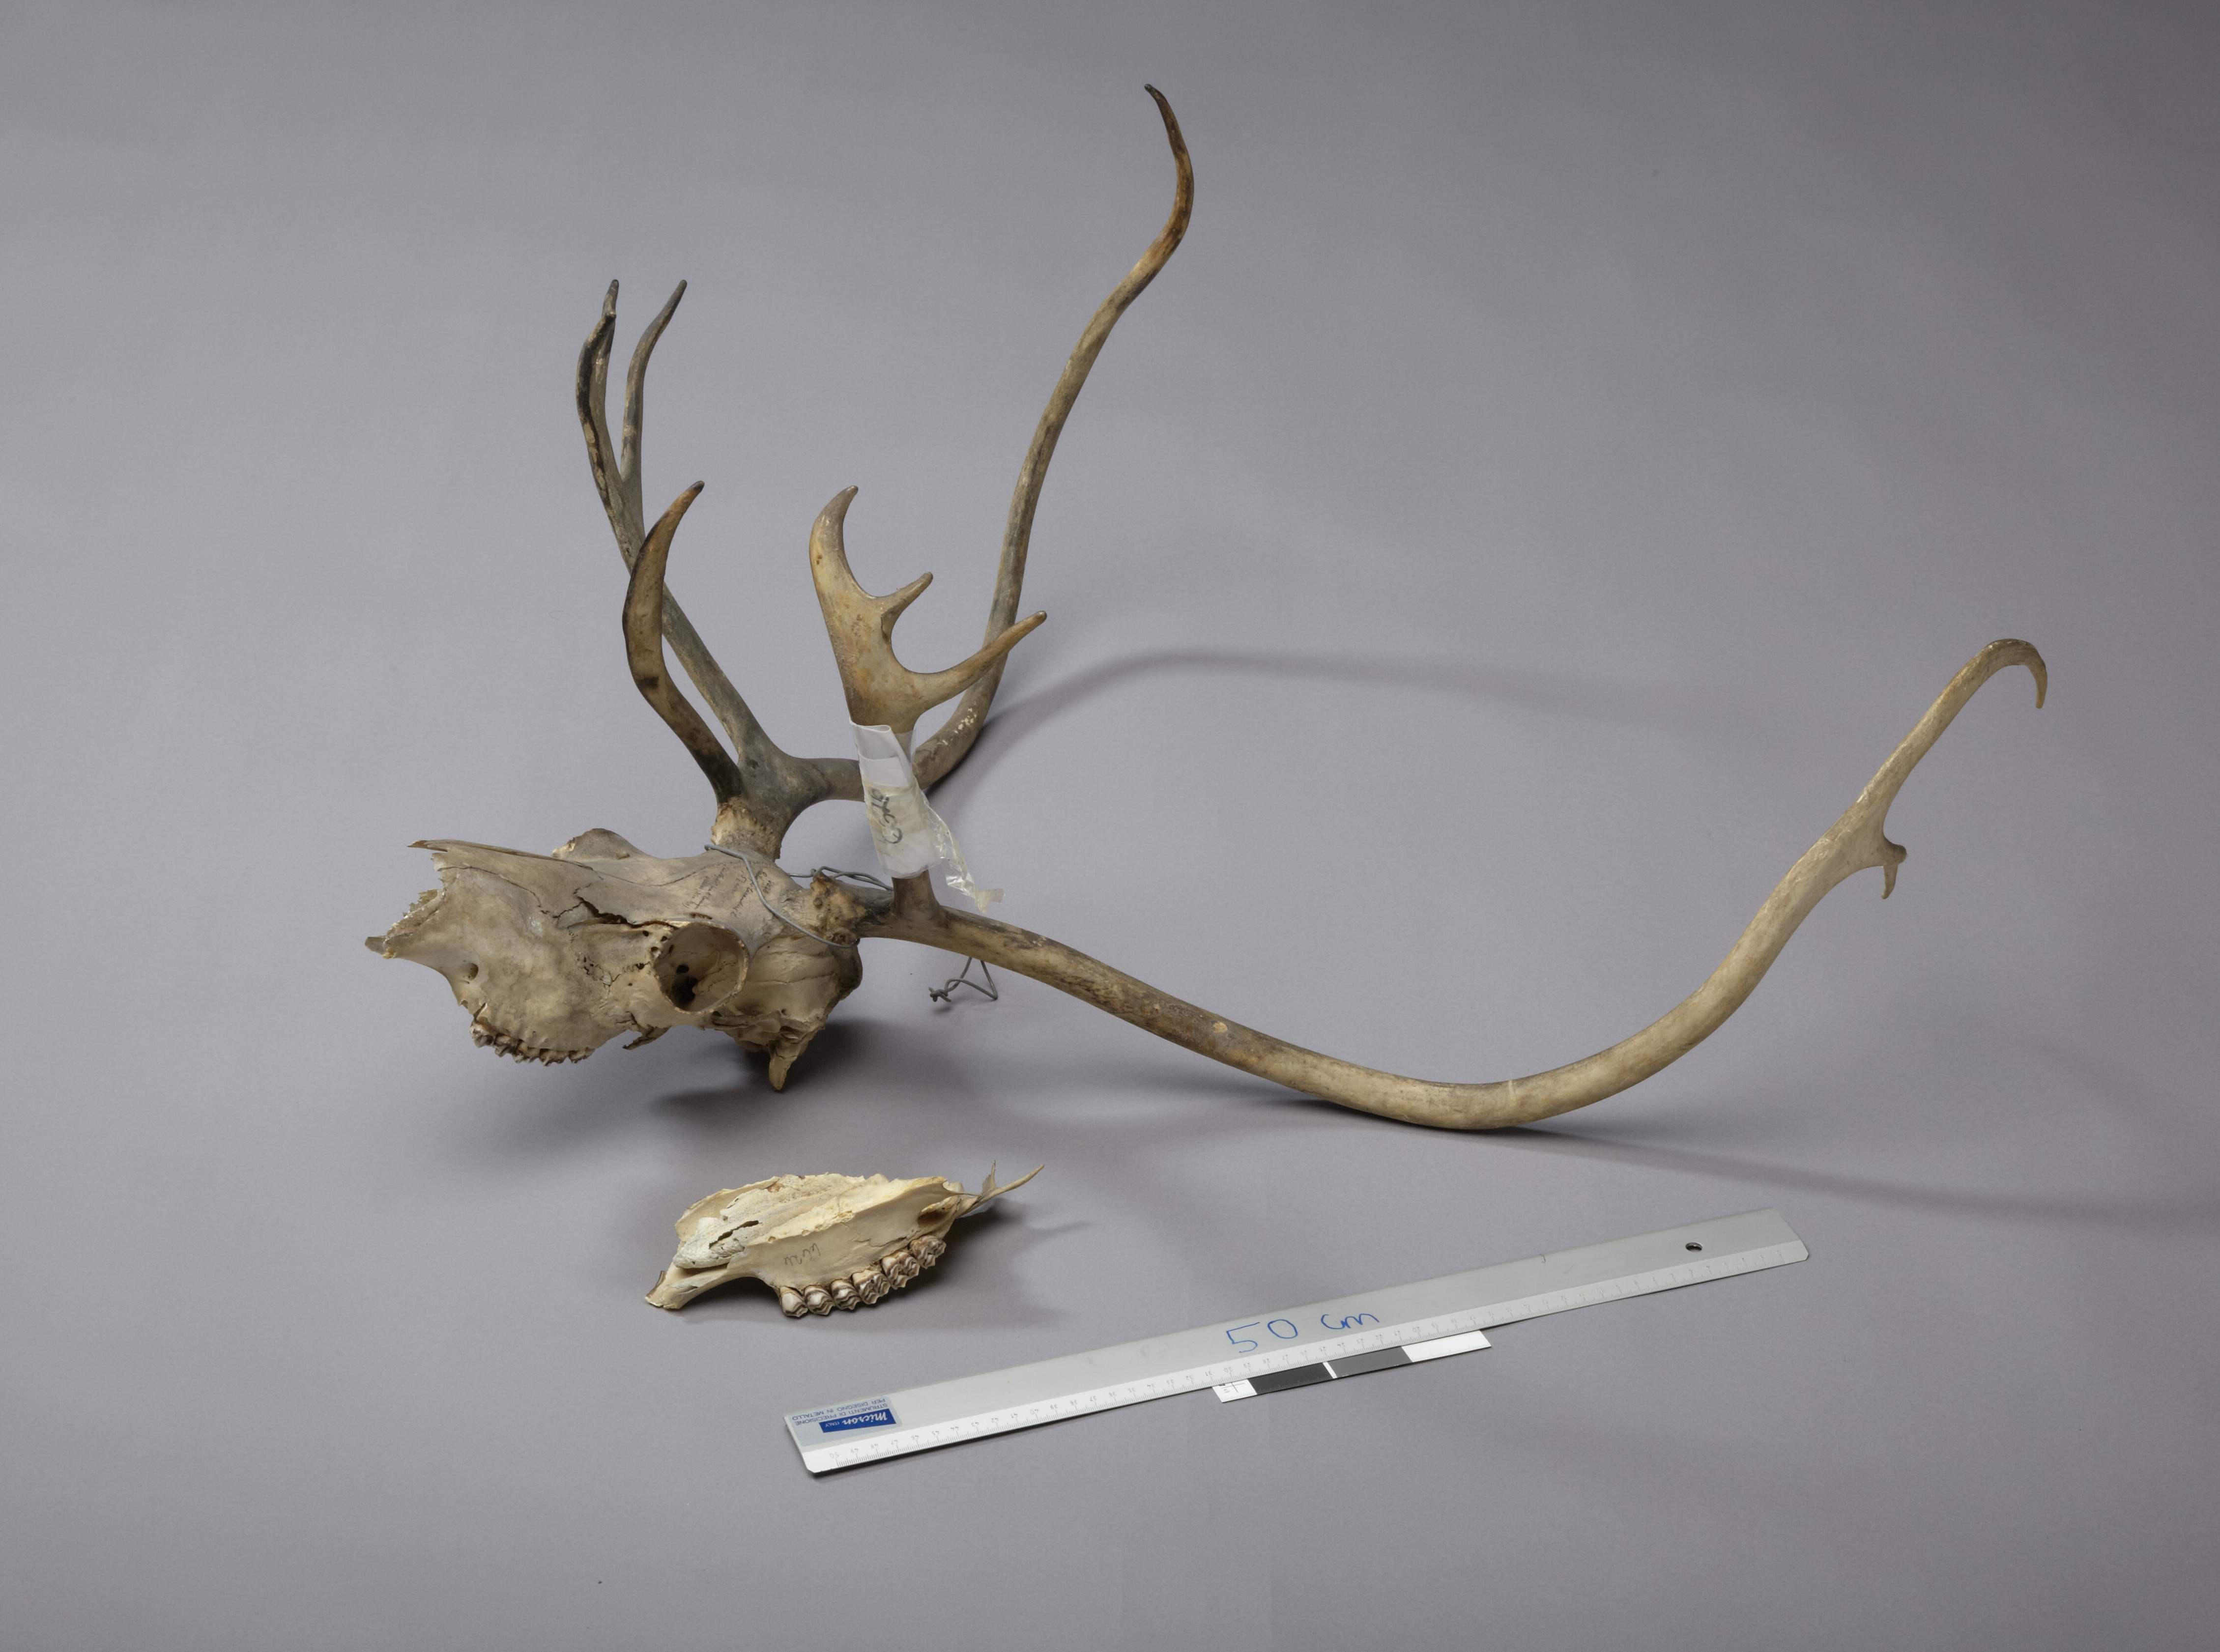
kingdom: Animalia
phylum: Chordata
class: Mammalia
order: Artiodactyla
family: Cervidae
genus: Rangifer
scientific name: Rangifer tarandus
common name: Reindeer
